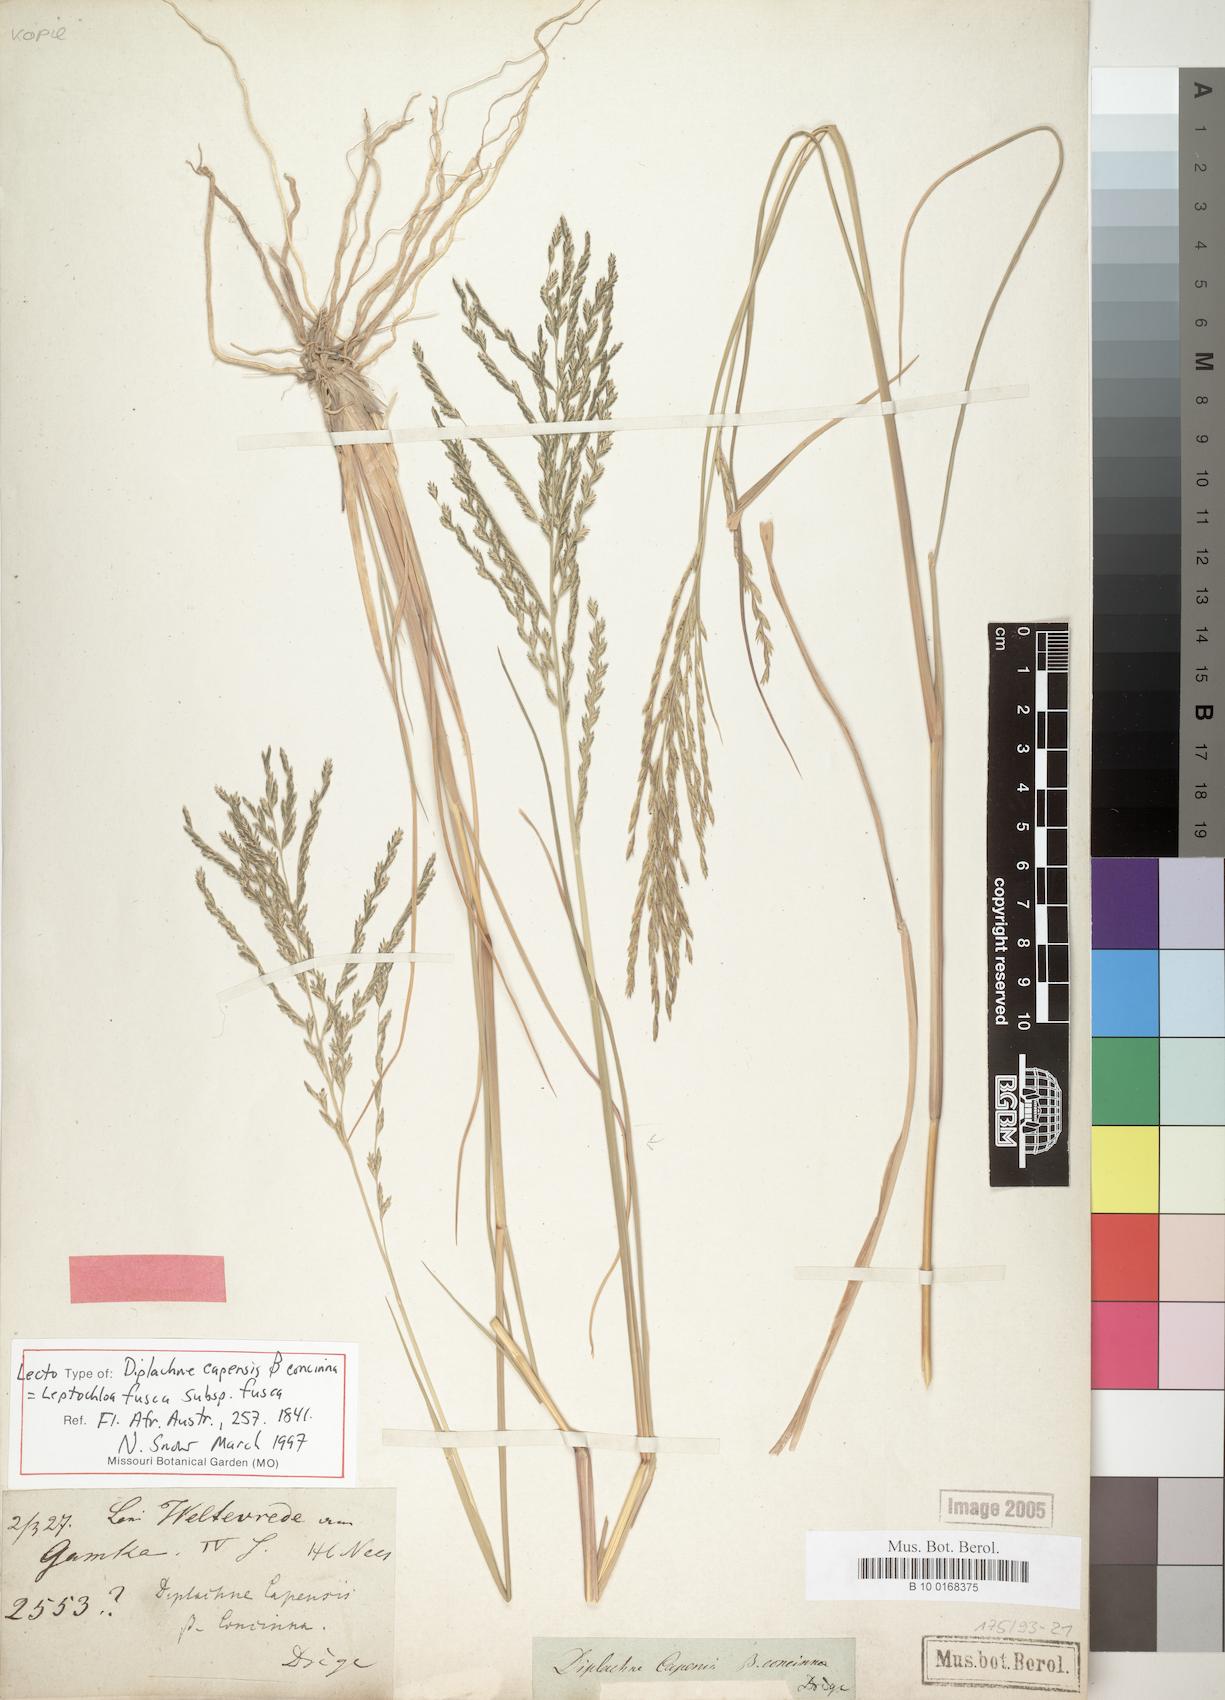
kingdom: Plantae
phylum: Tracheophyta
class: Liliopsida
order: Poales
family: Poaceae
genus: Diplachne
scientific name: Diplachne fusca
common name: Brown beetle grass
